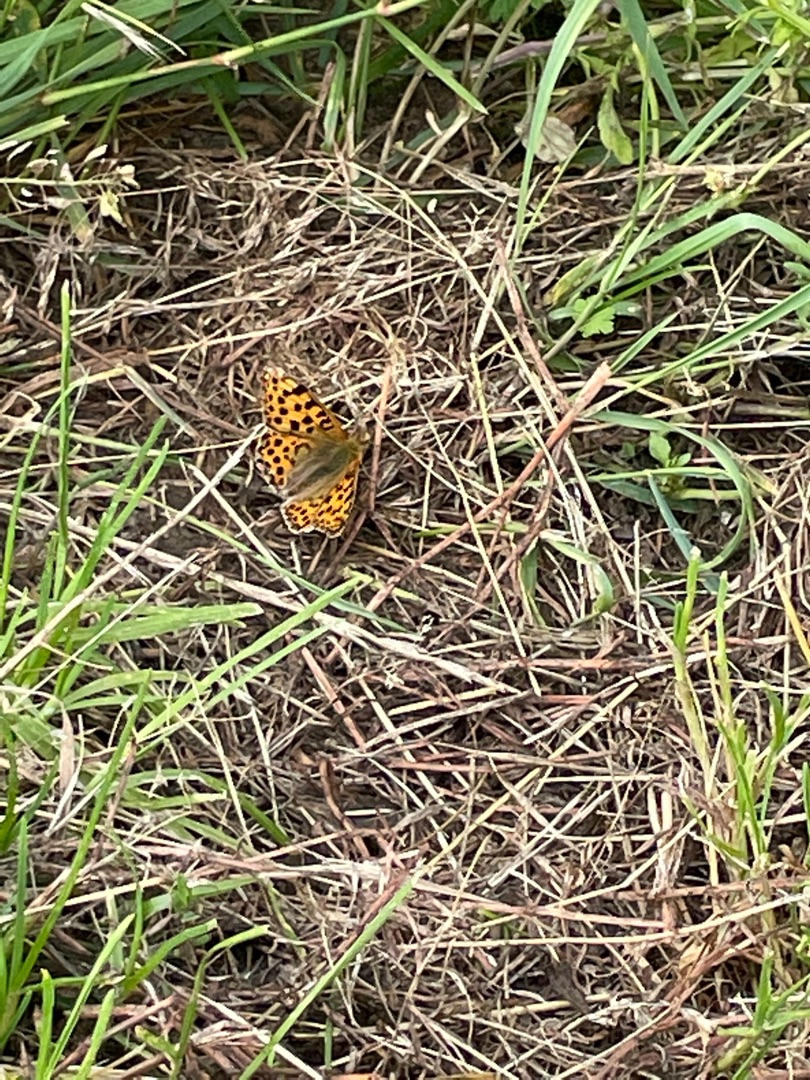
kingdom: Animalia
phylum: Arthropoda
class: Insecta
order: Lepidoptera
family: Nymphalidae
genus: Issoria
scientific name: Issoria lathonia
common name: Storplettet perlemorsommerfugl
